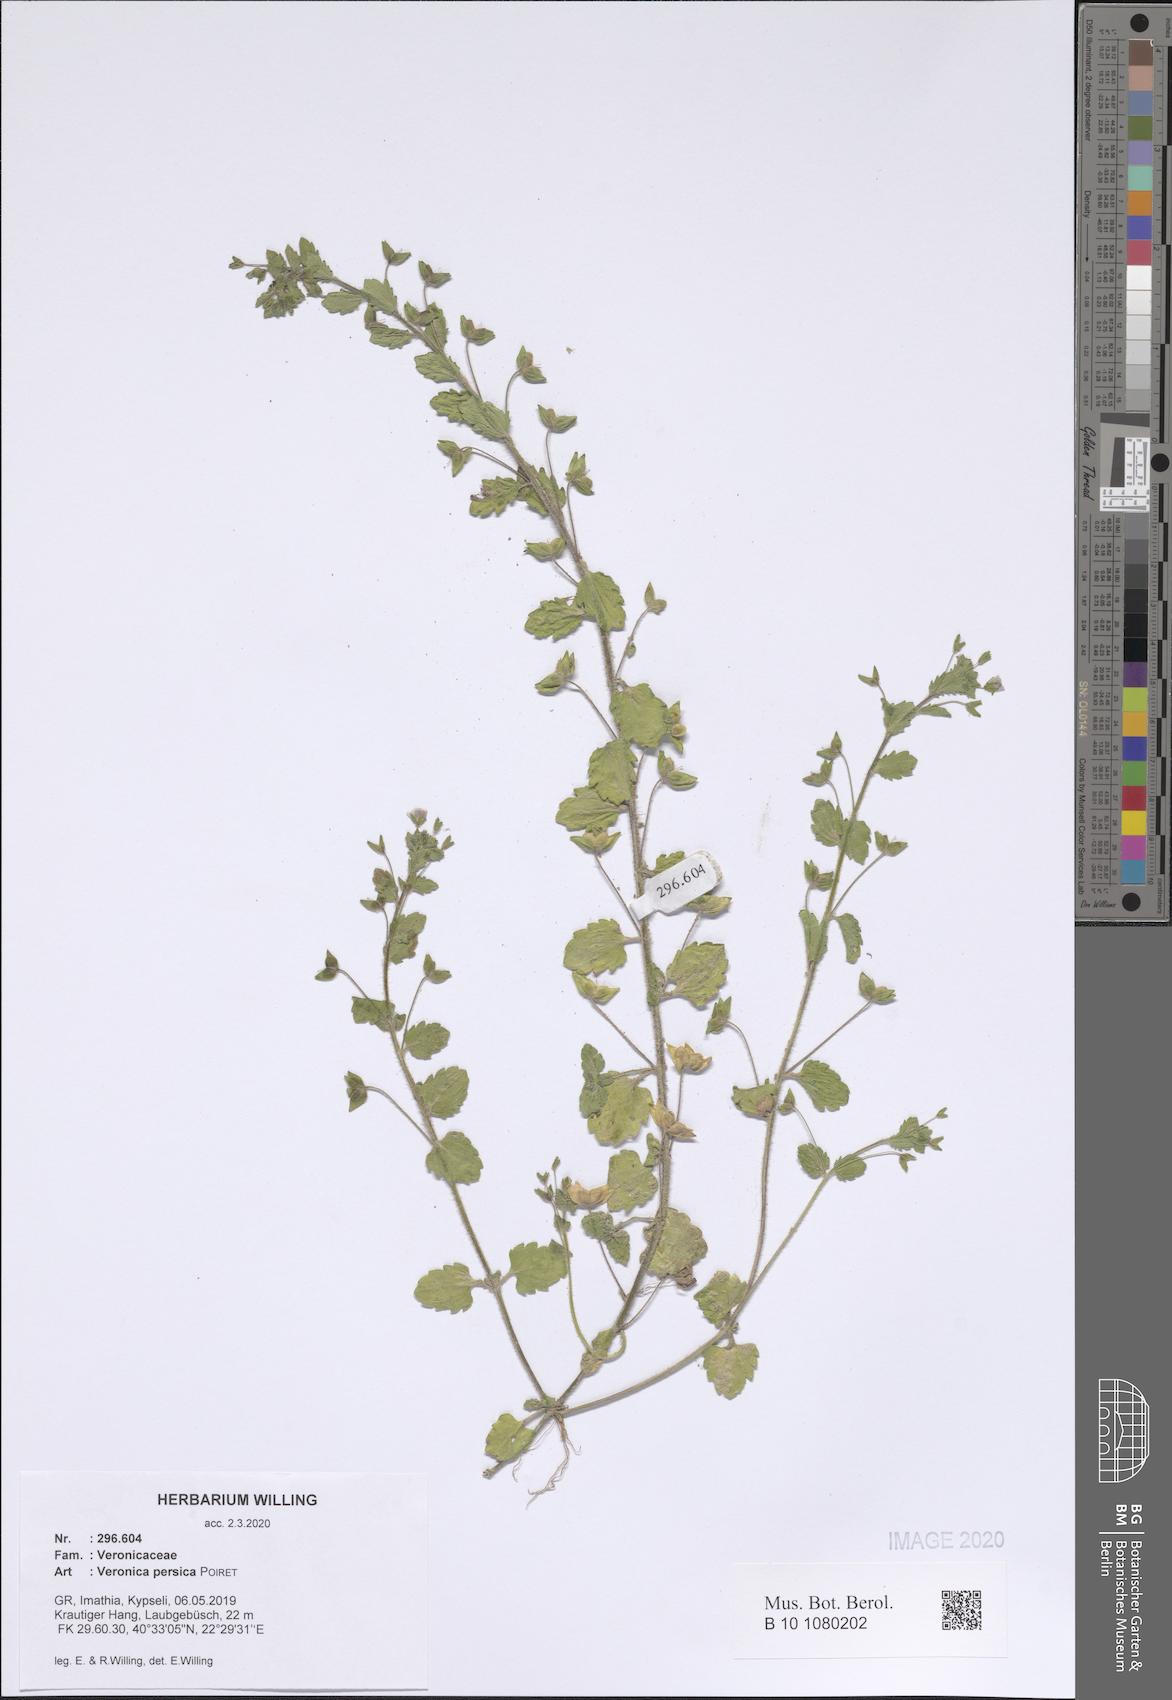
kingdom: Plantae
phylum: Tracheophyta
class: Magnoliopsida
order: Lamiales
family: Plantaginaceae
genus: Veronica
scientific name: Veronica persica
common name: Common field-speedwell
